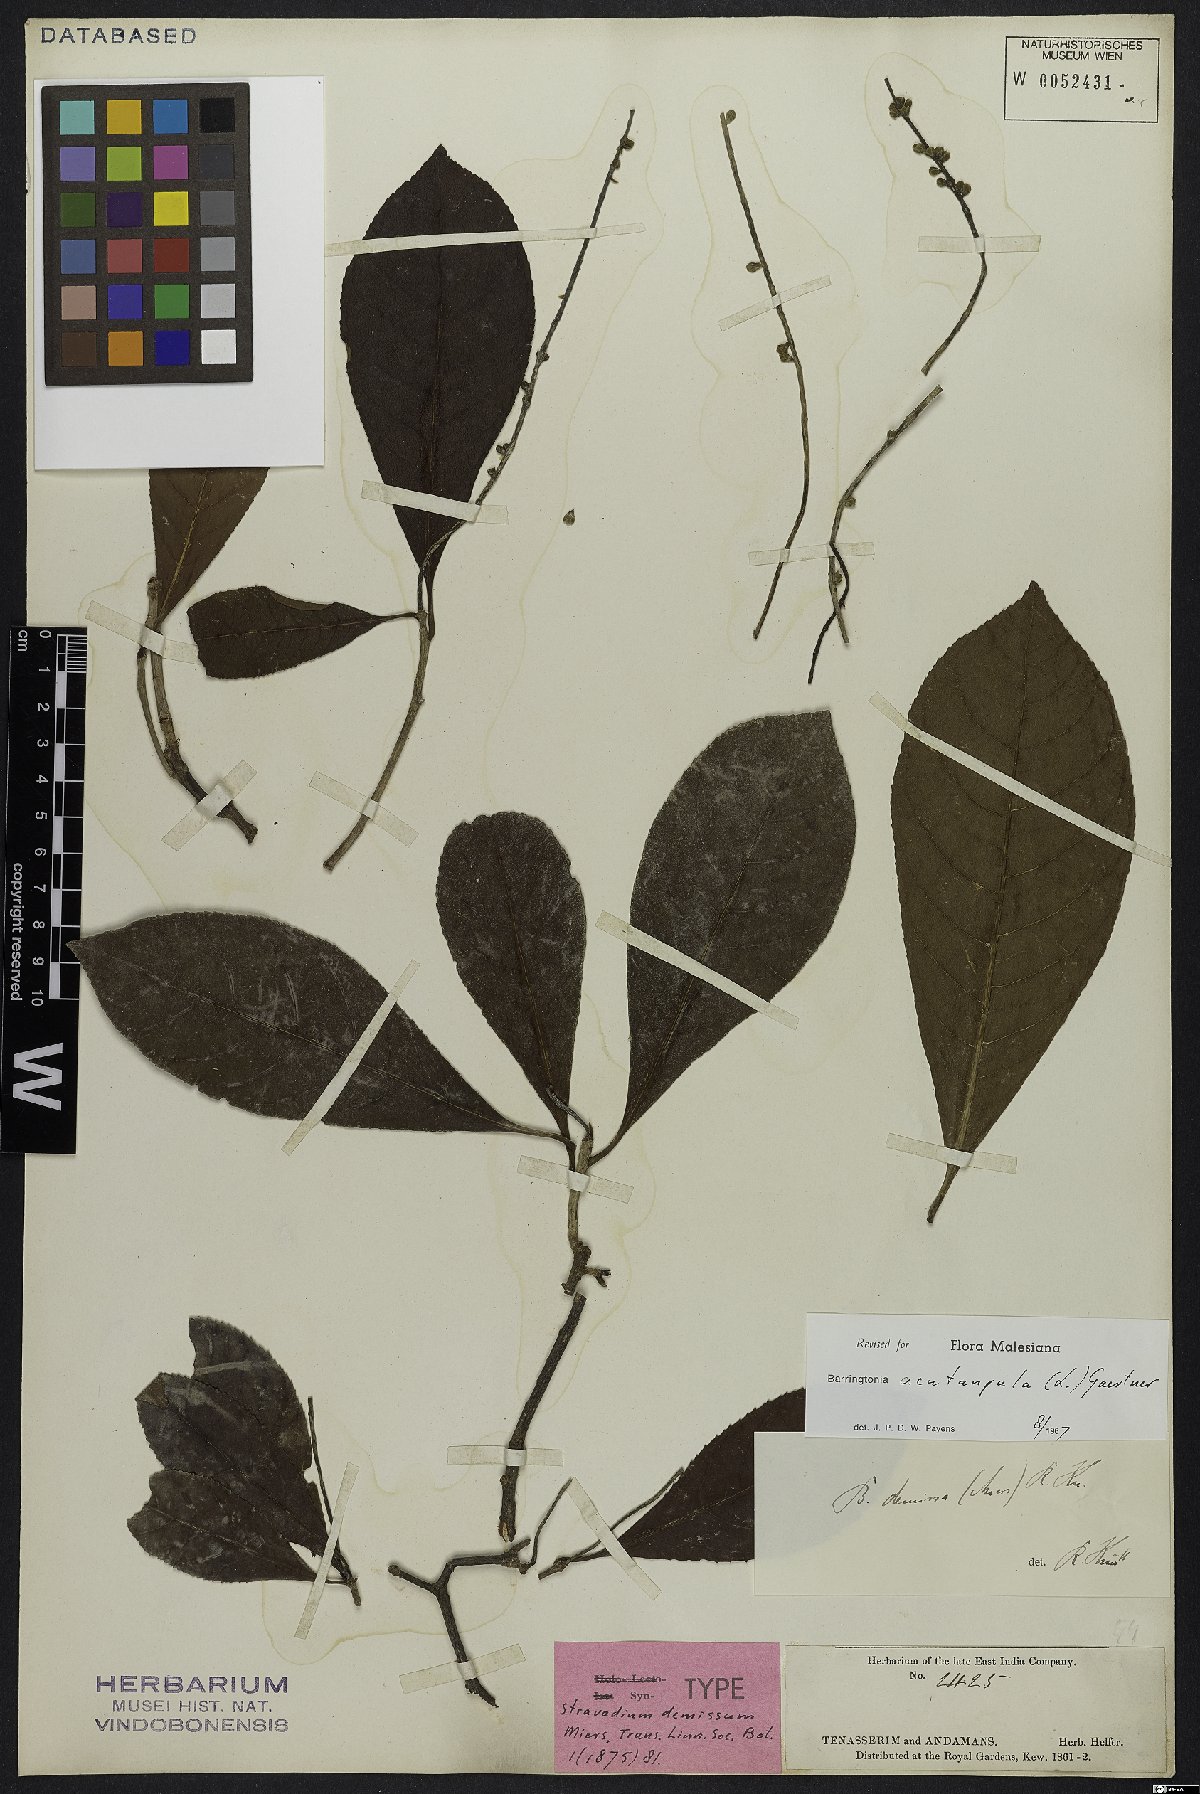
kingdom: Plantae
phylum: Tracheophyta
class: Magnoliopsida
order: Ericales
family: Lecythidaceae
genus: Barringtonia
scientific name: Barringtonia acutangula
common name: Freshwater mangrove
